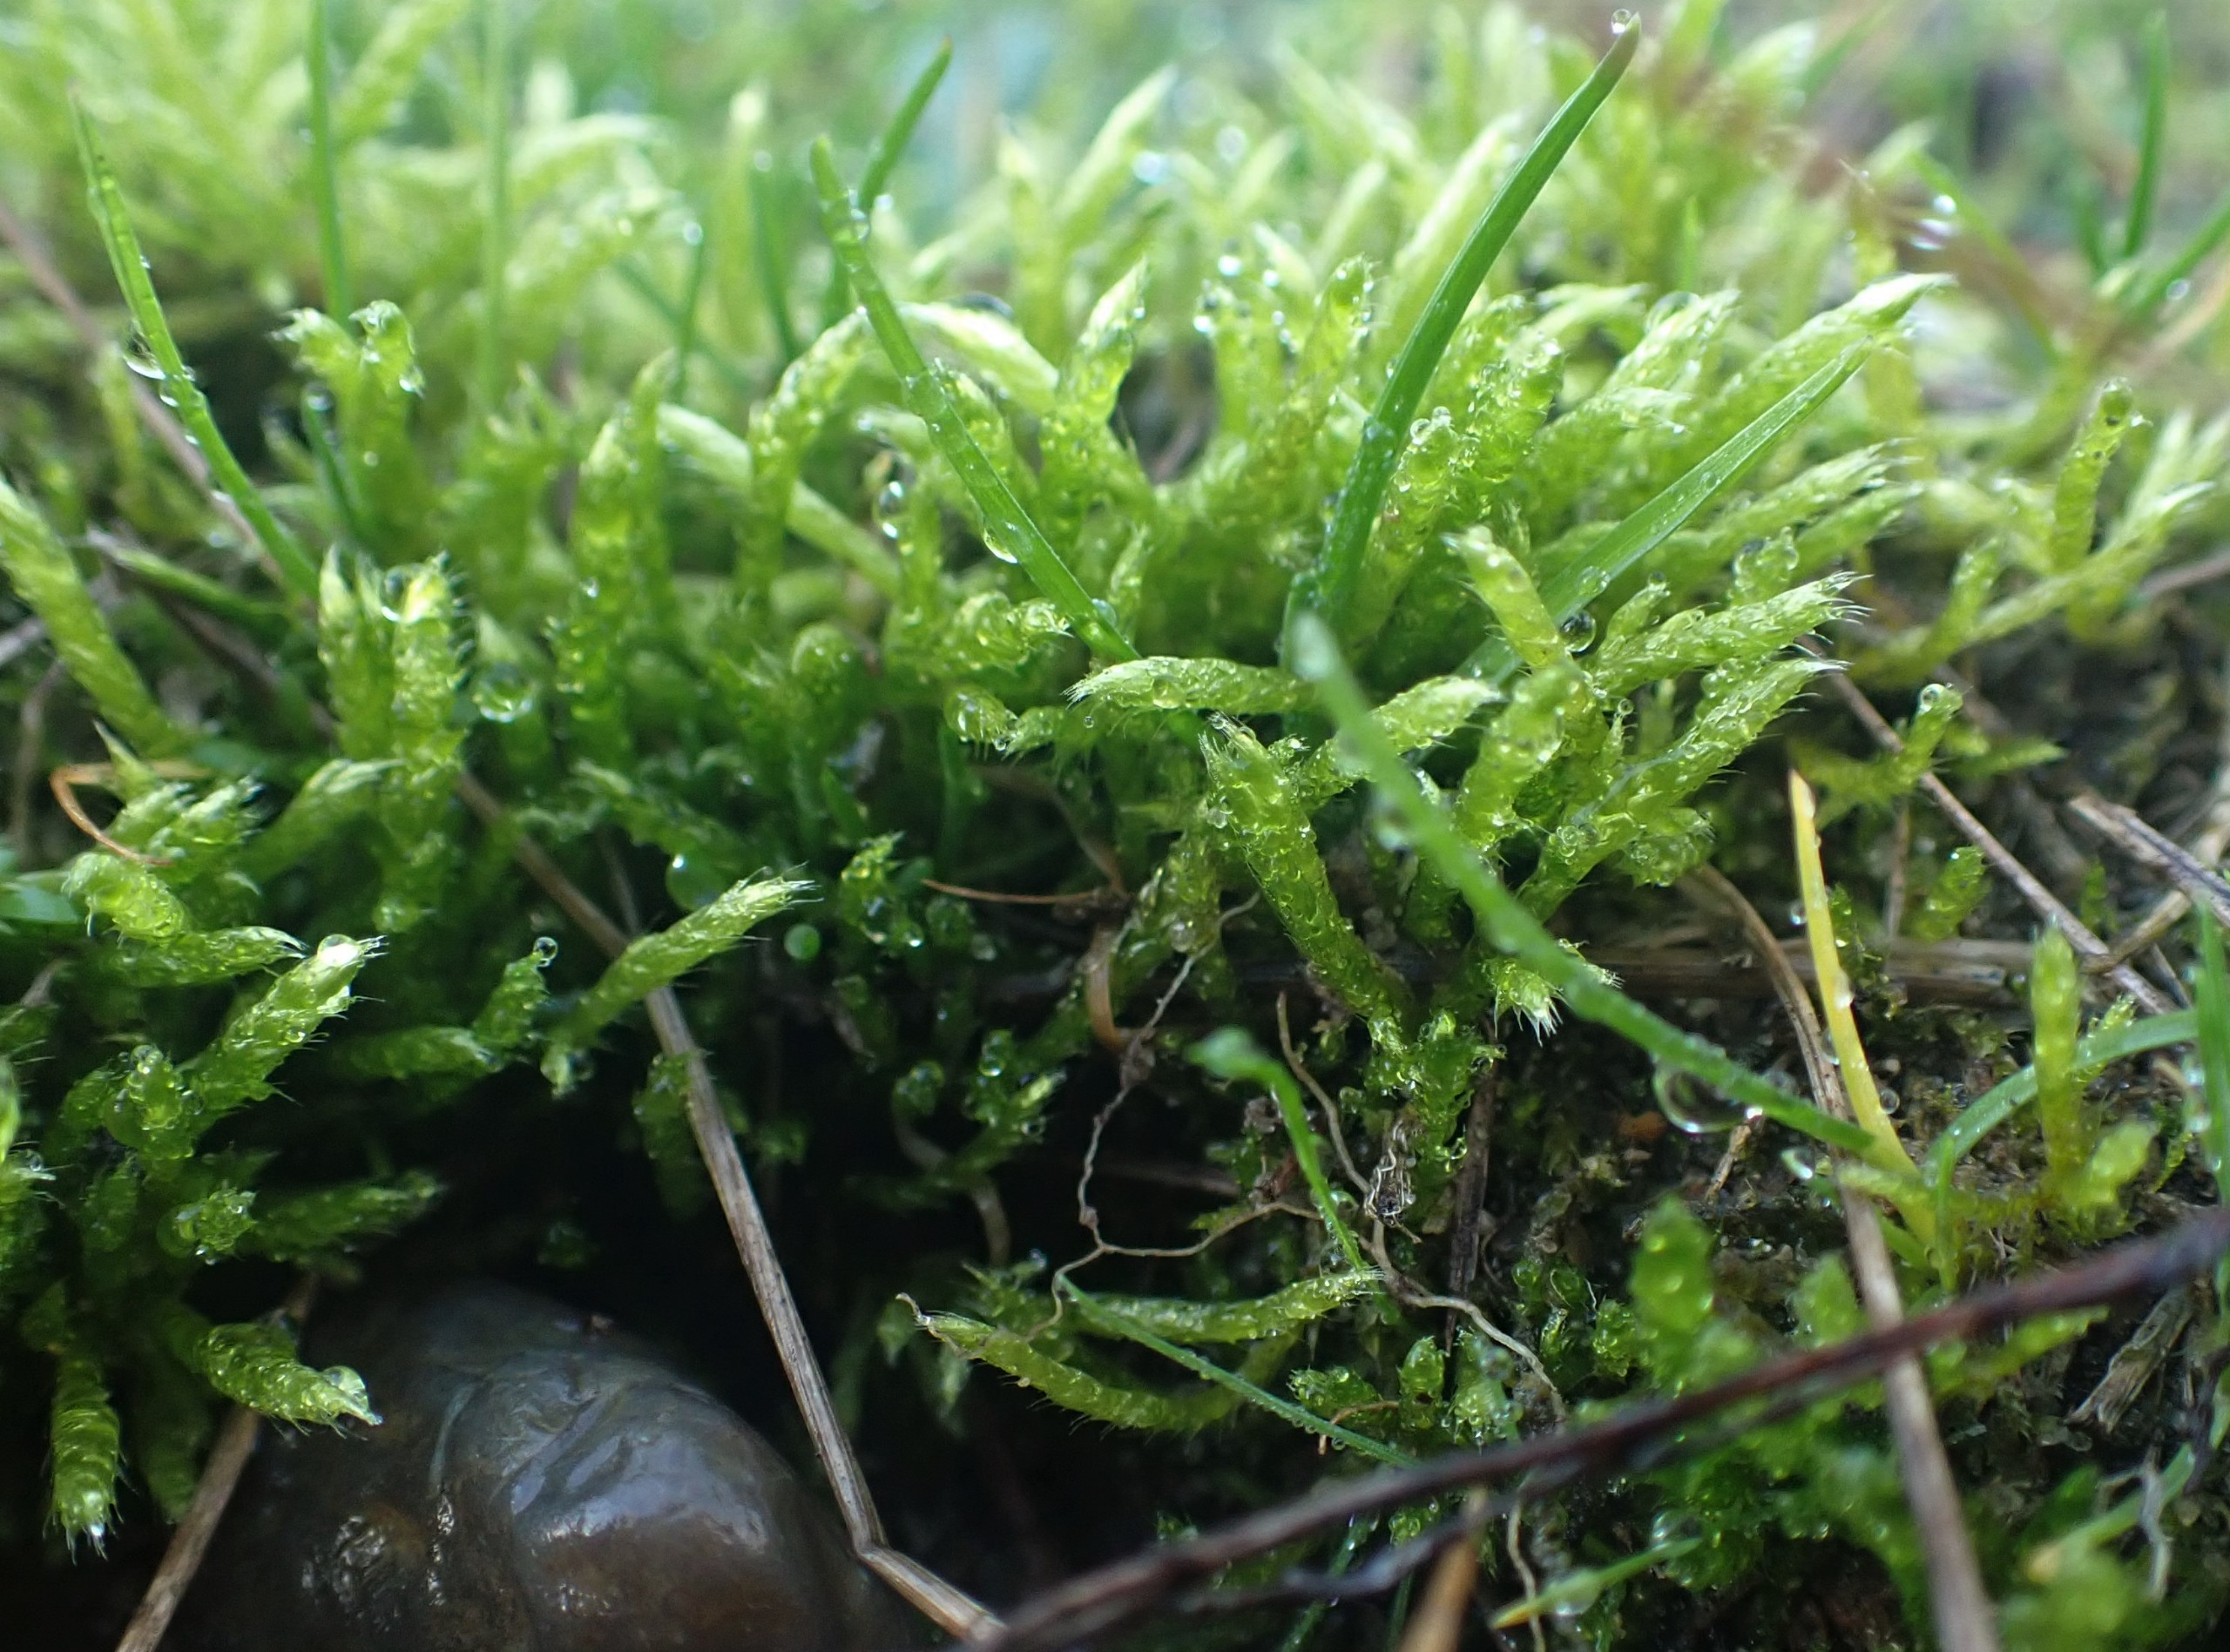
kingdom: Plantae
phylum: Bryophyta
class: Bryopsida
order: Hypnales
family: Brachytheciaceae
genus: Brachythecium
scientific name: Brachythecium albicans
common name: Hvidlig kortkapsel
